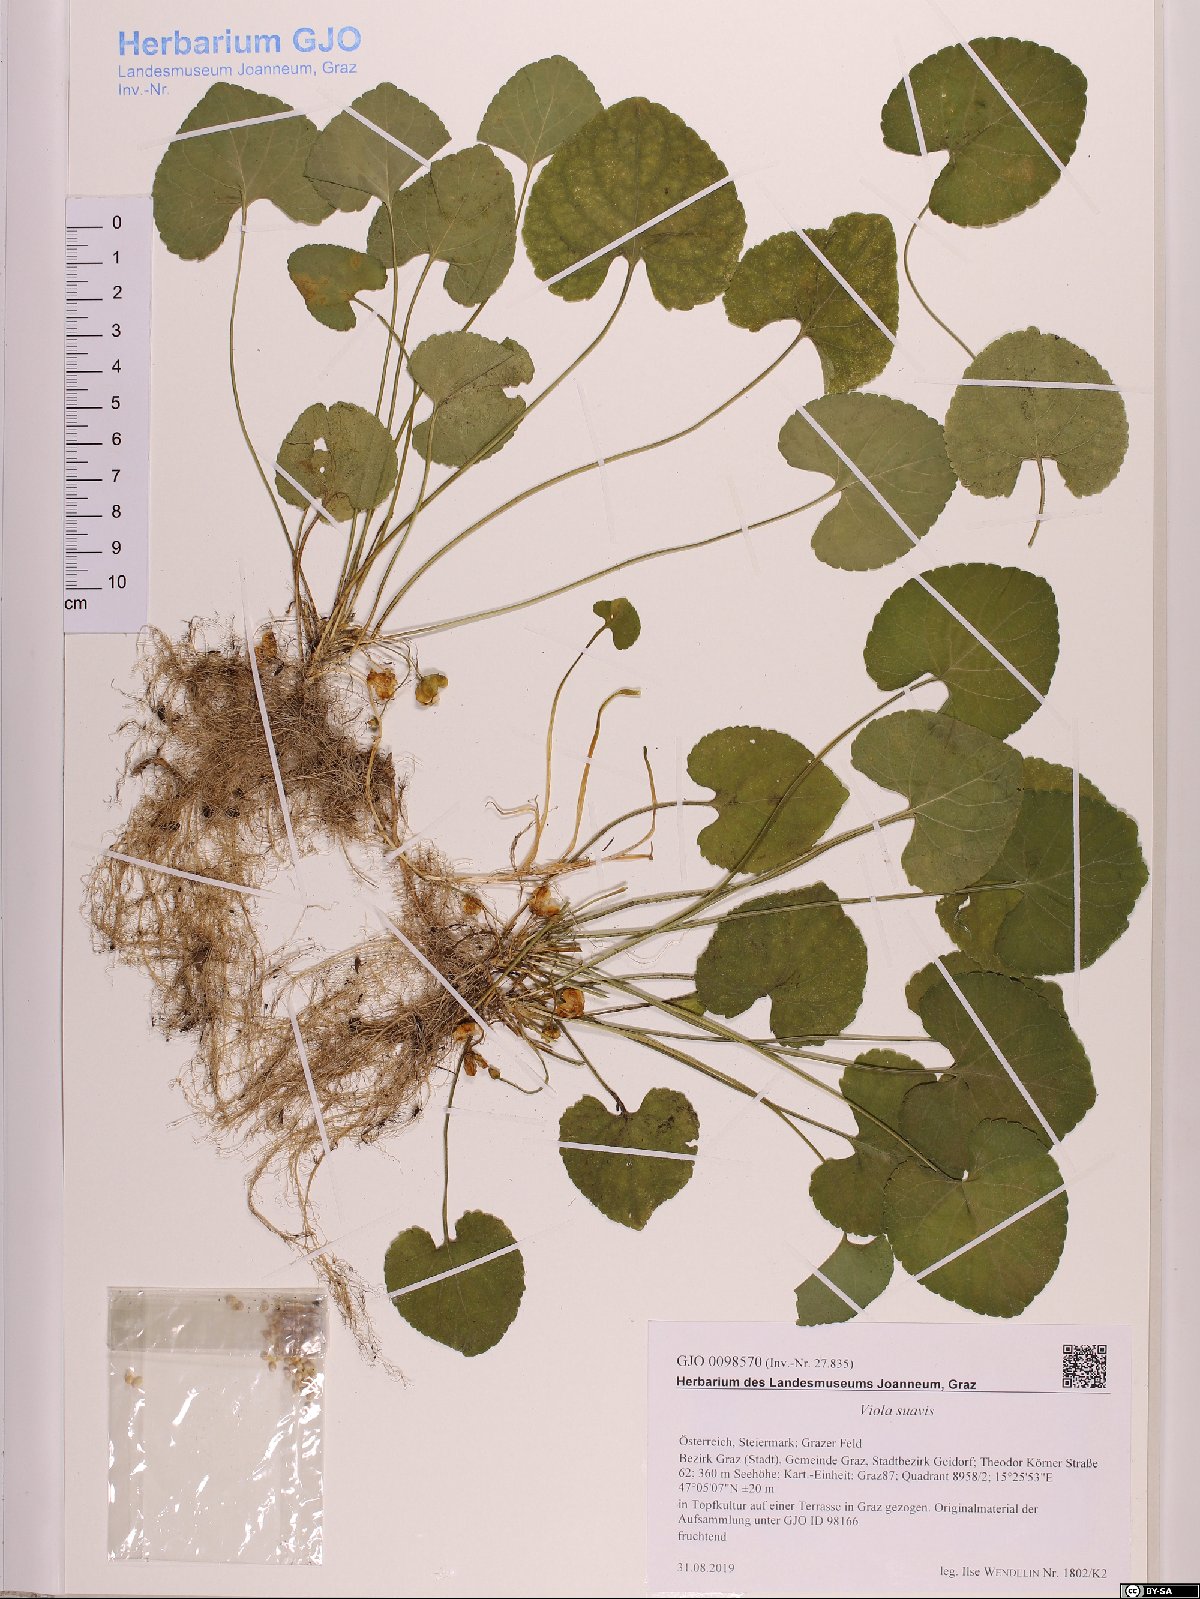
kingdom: Plantae
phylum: Tracheophyta
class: Magnoliopsida
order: Malpighiales
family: Violaceae
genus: Viola
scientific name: Viola suavis
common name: Russian violet
